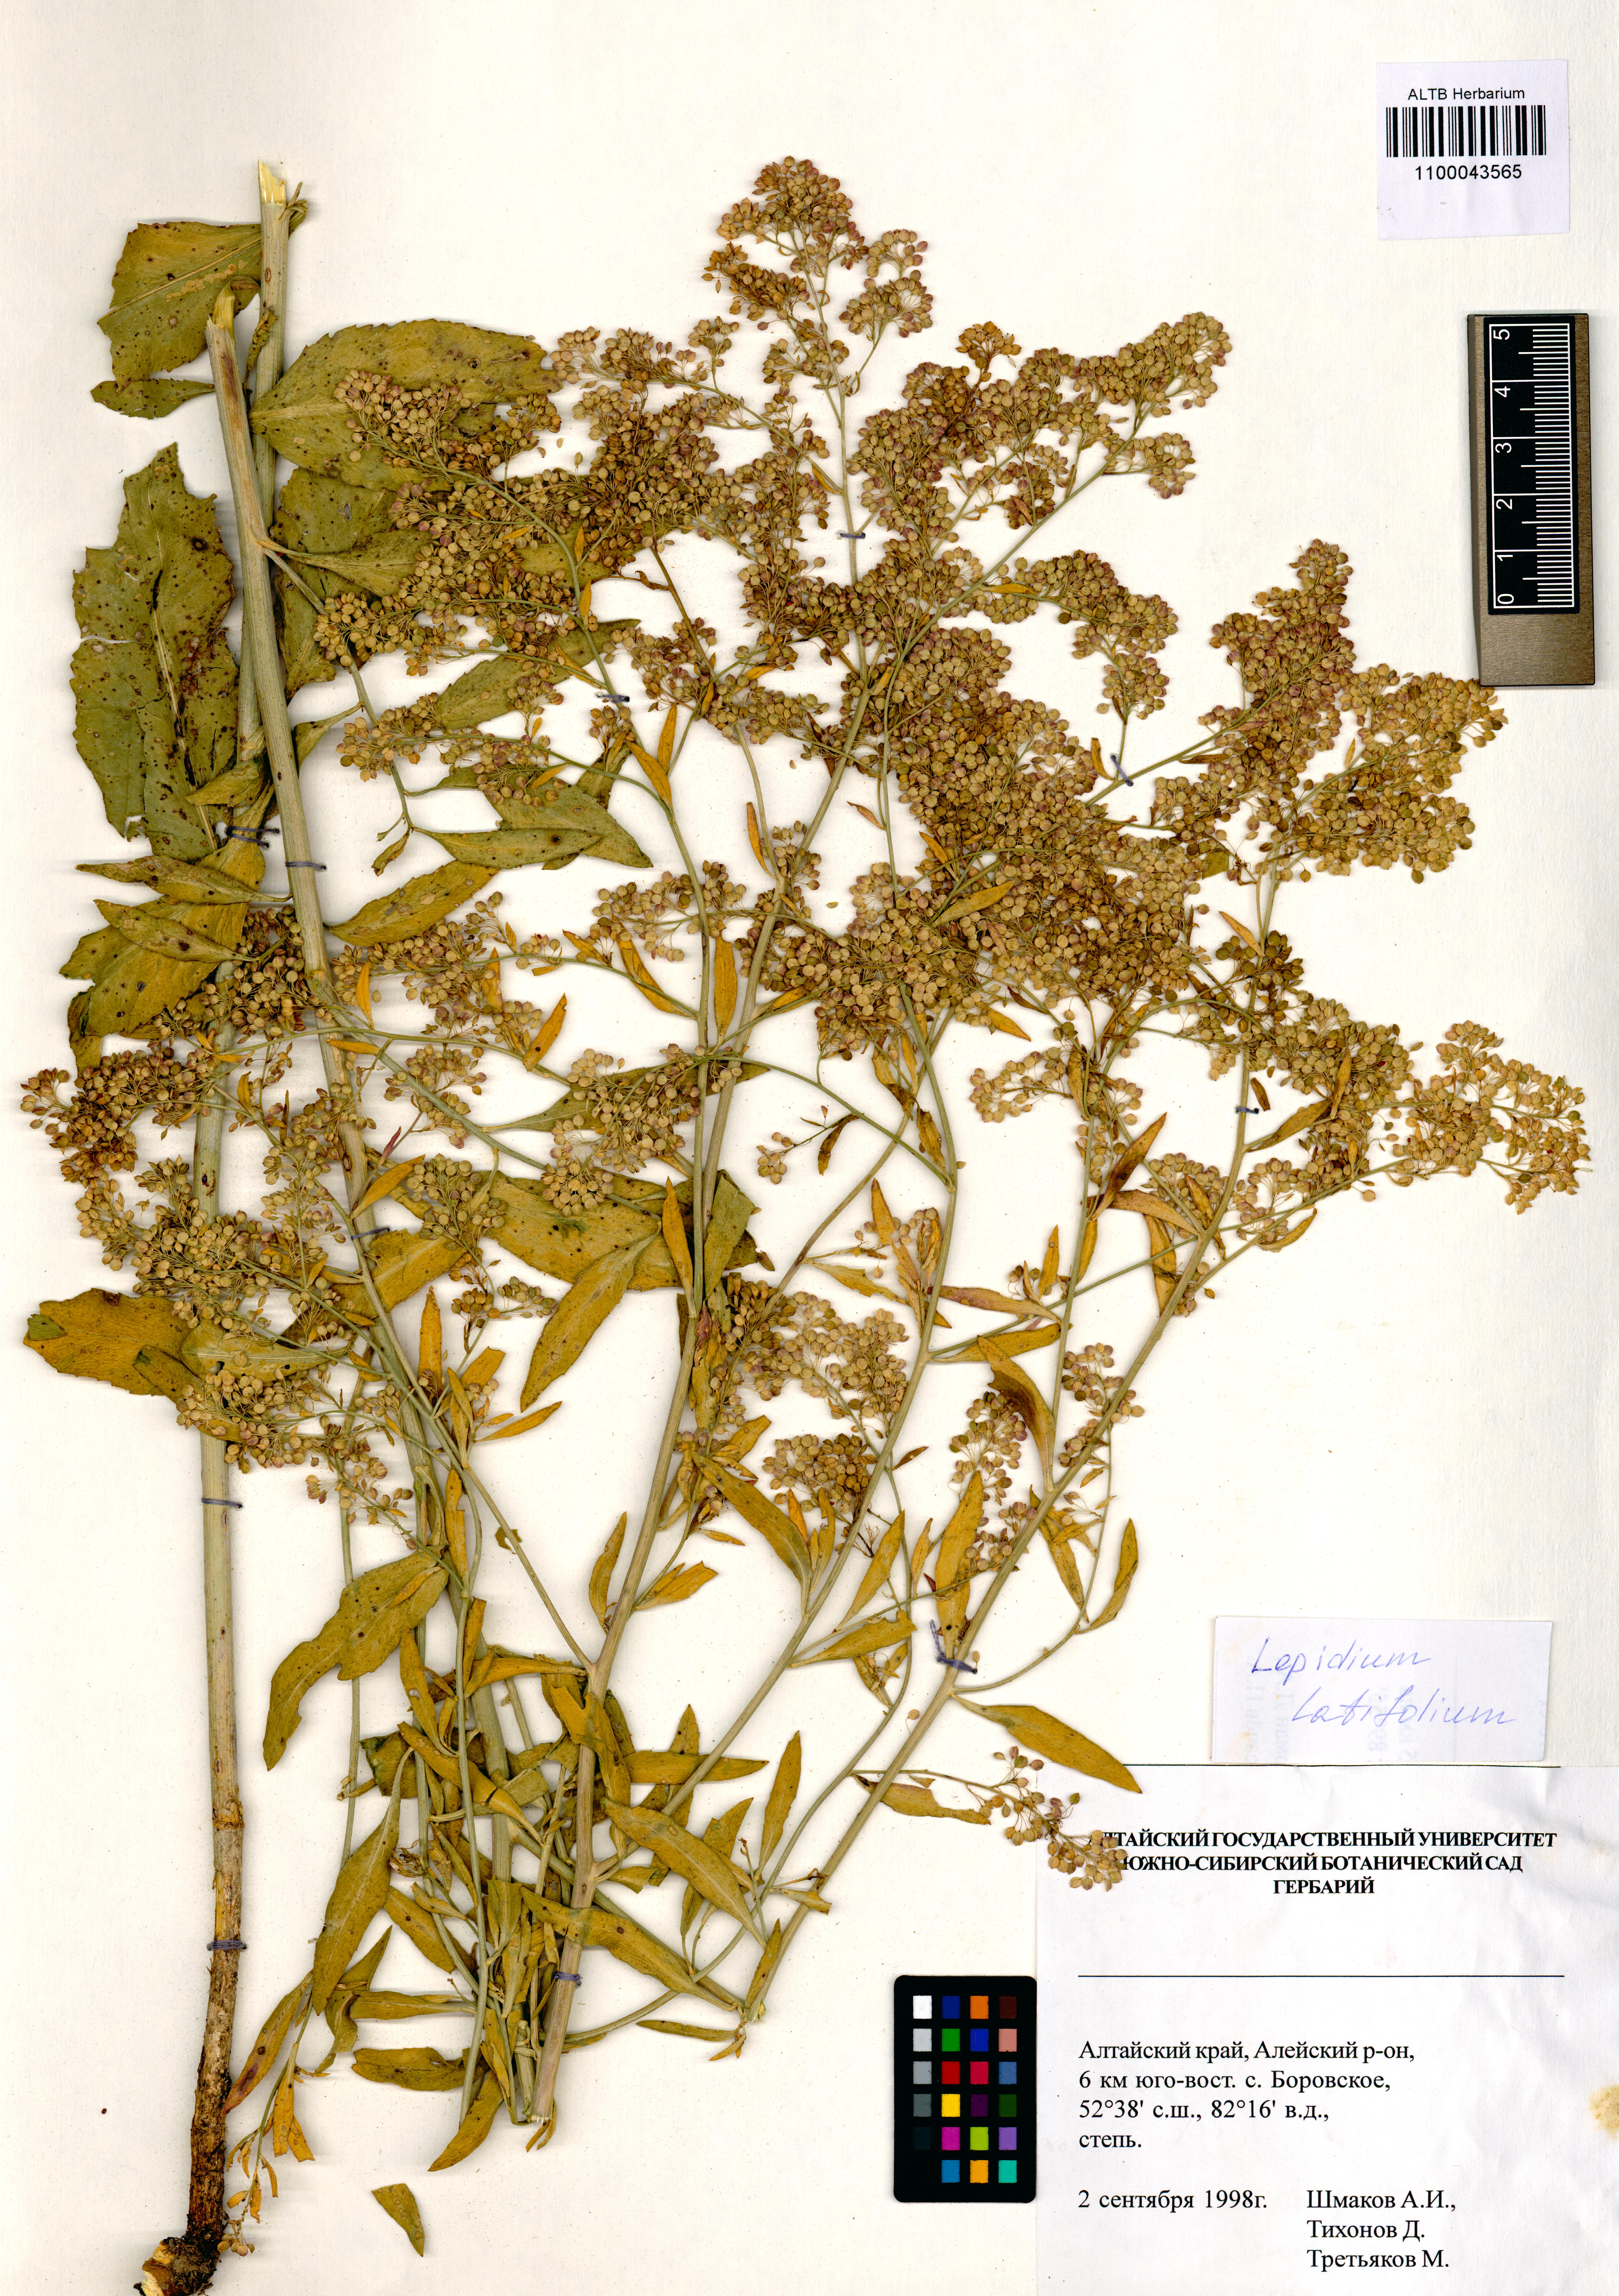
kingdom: Plantae
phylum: Tracheophyta
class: Magnoliopsida
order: Brassicales
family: Brassicaceae
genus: Lepidium
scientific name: Lepidium latifolium
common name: Dittander
